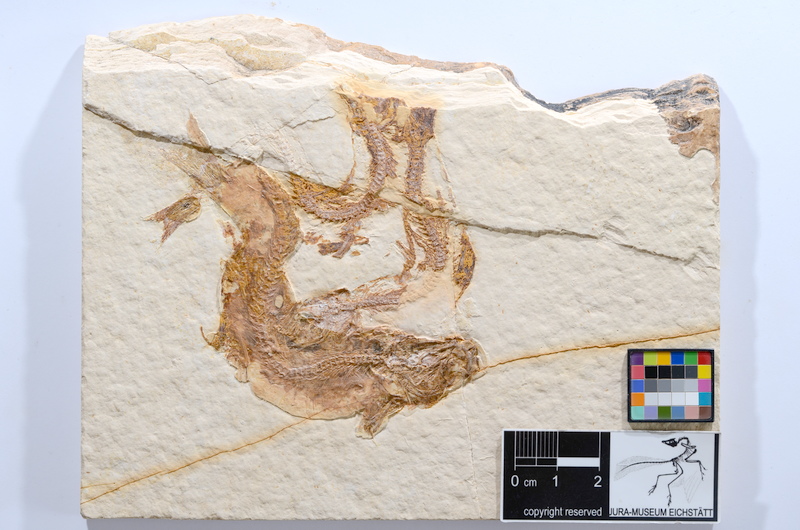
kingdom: Animalia
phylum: Chordata
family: Ascalaboidae
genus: Tharsis
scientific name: Tharsis dubius
